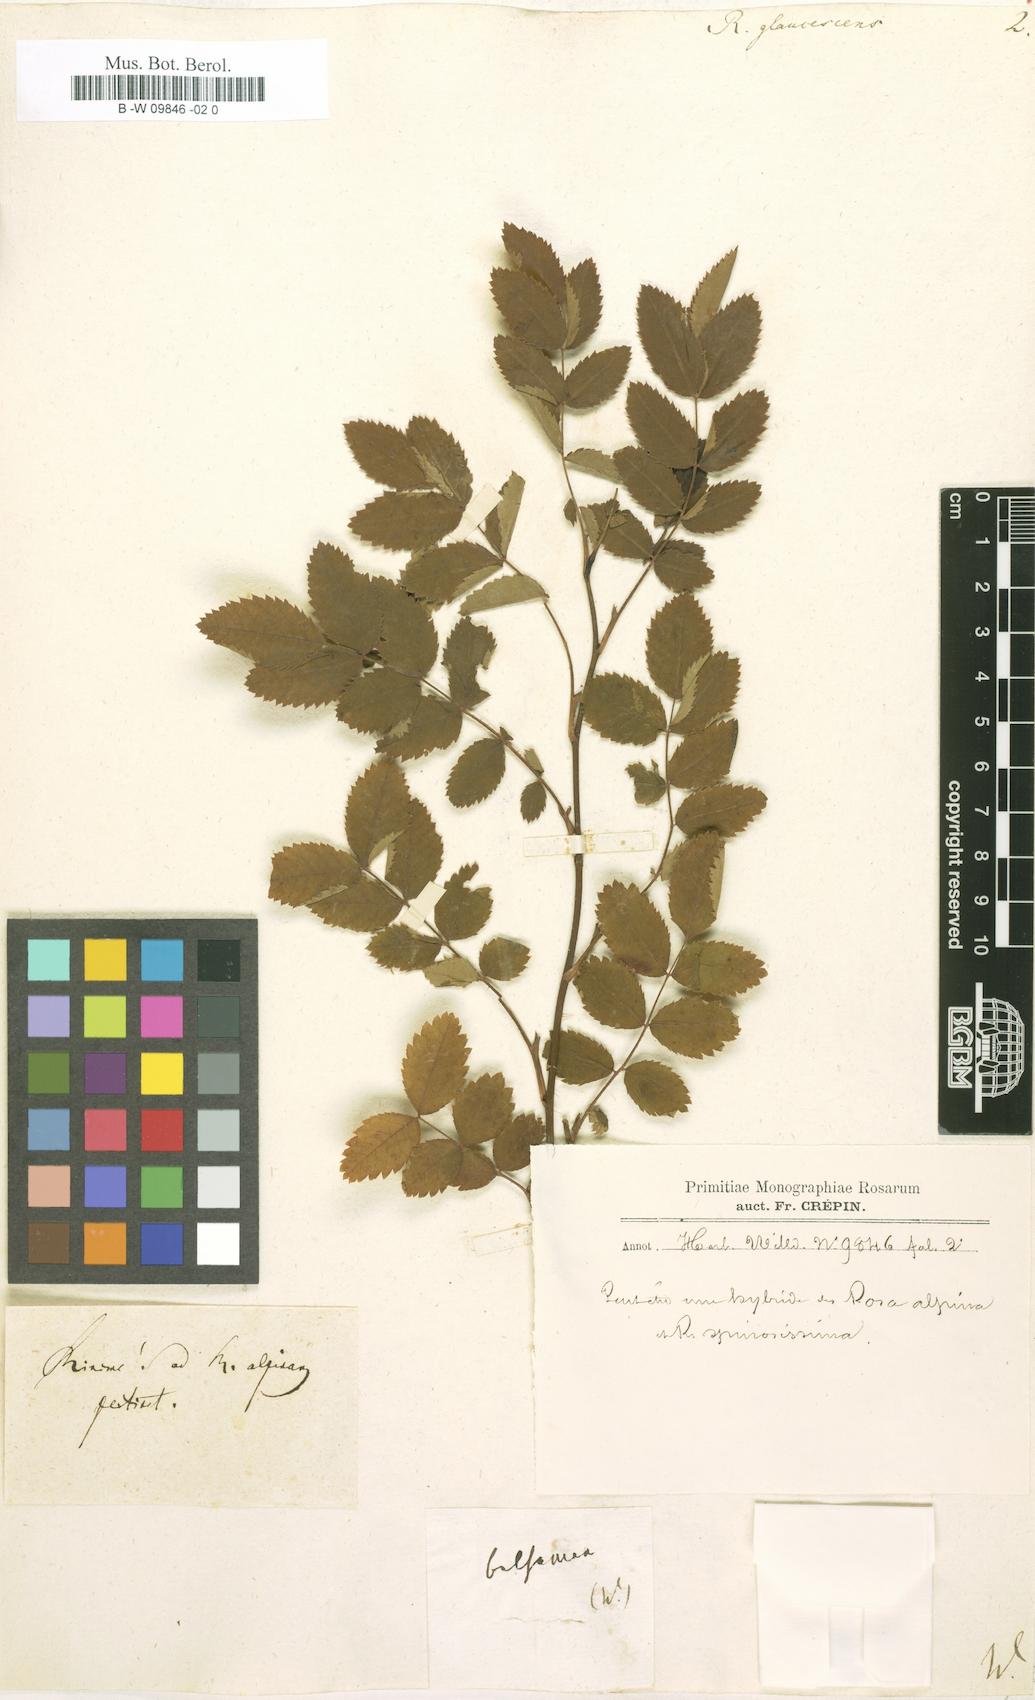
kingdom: Plantae
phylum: Tracheophyta
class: Magnoliopsida
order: Rosales
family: Rosaceae
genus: Rosa
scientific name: Rosa glaucescens
